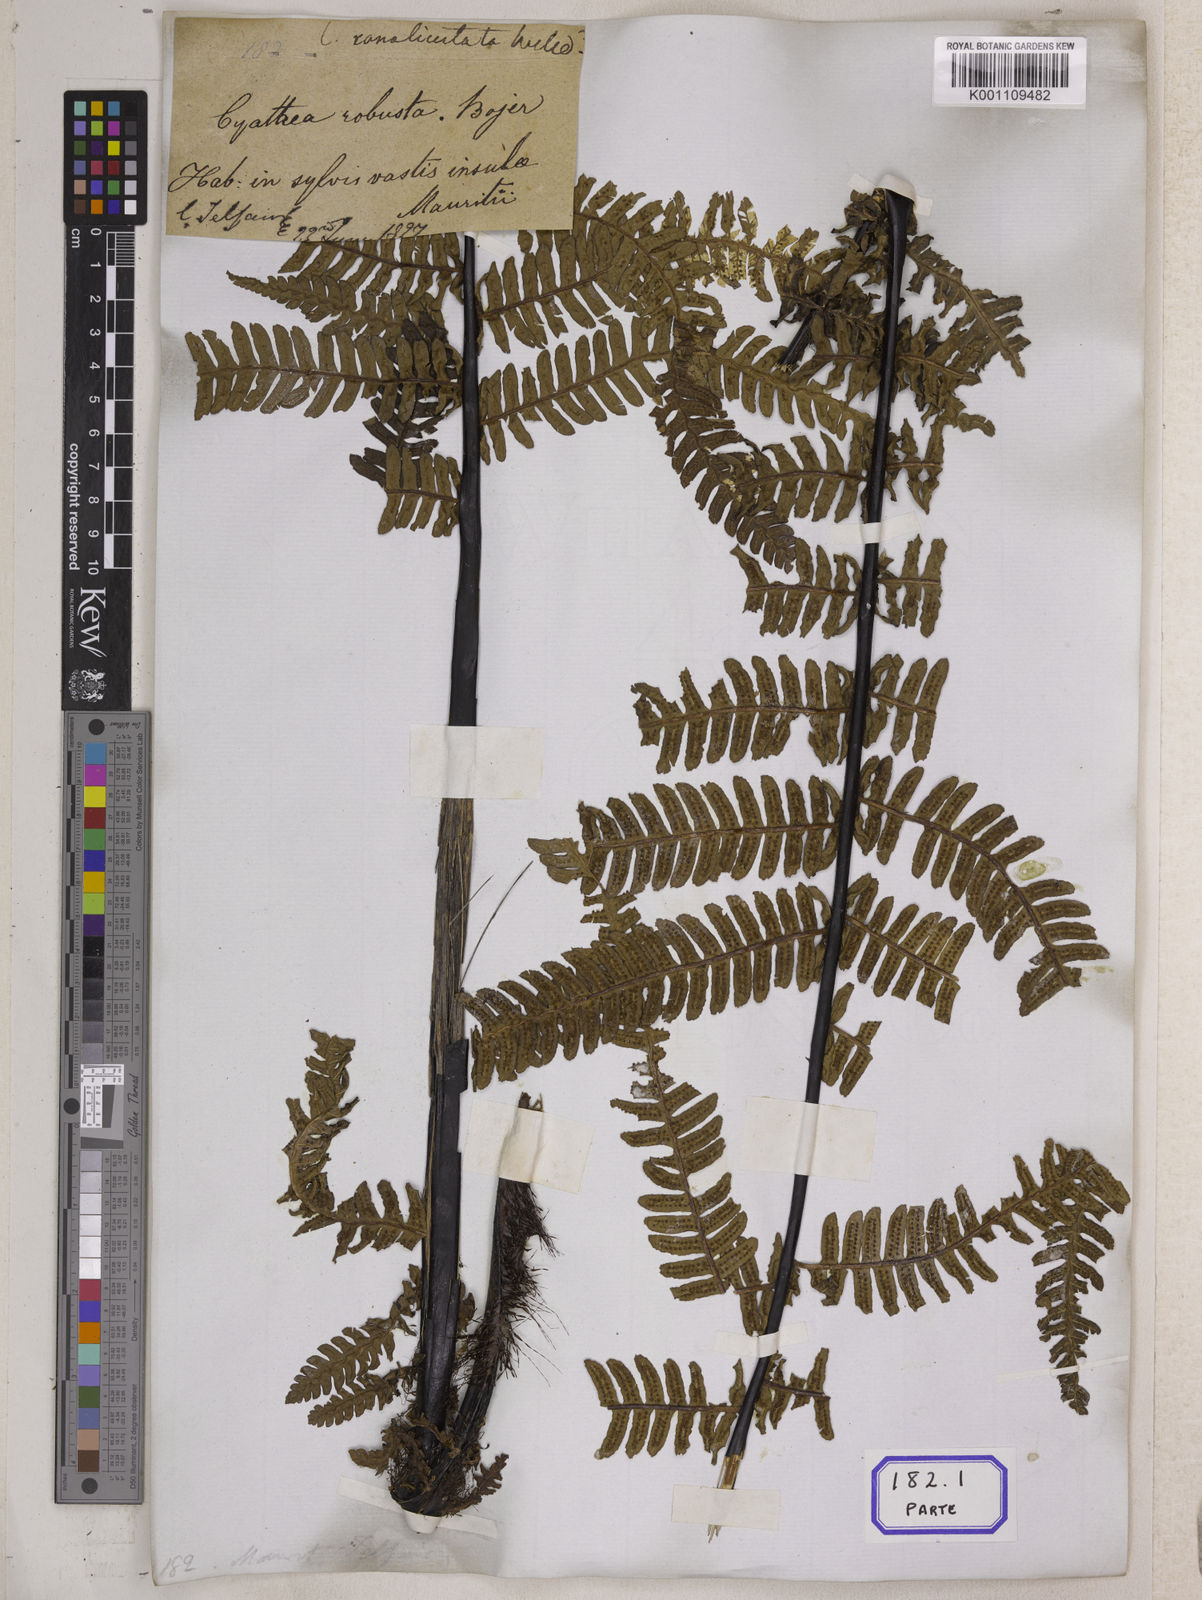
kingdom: Plantae
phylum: Tracheophyta
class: Polypodiopsida
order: Cyatheales
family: Cyatheaceae
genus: Alsophila
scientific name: Alsophila borbonica
